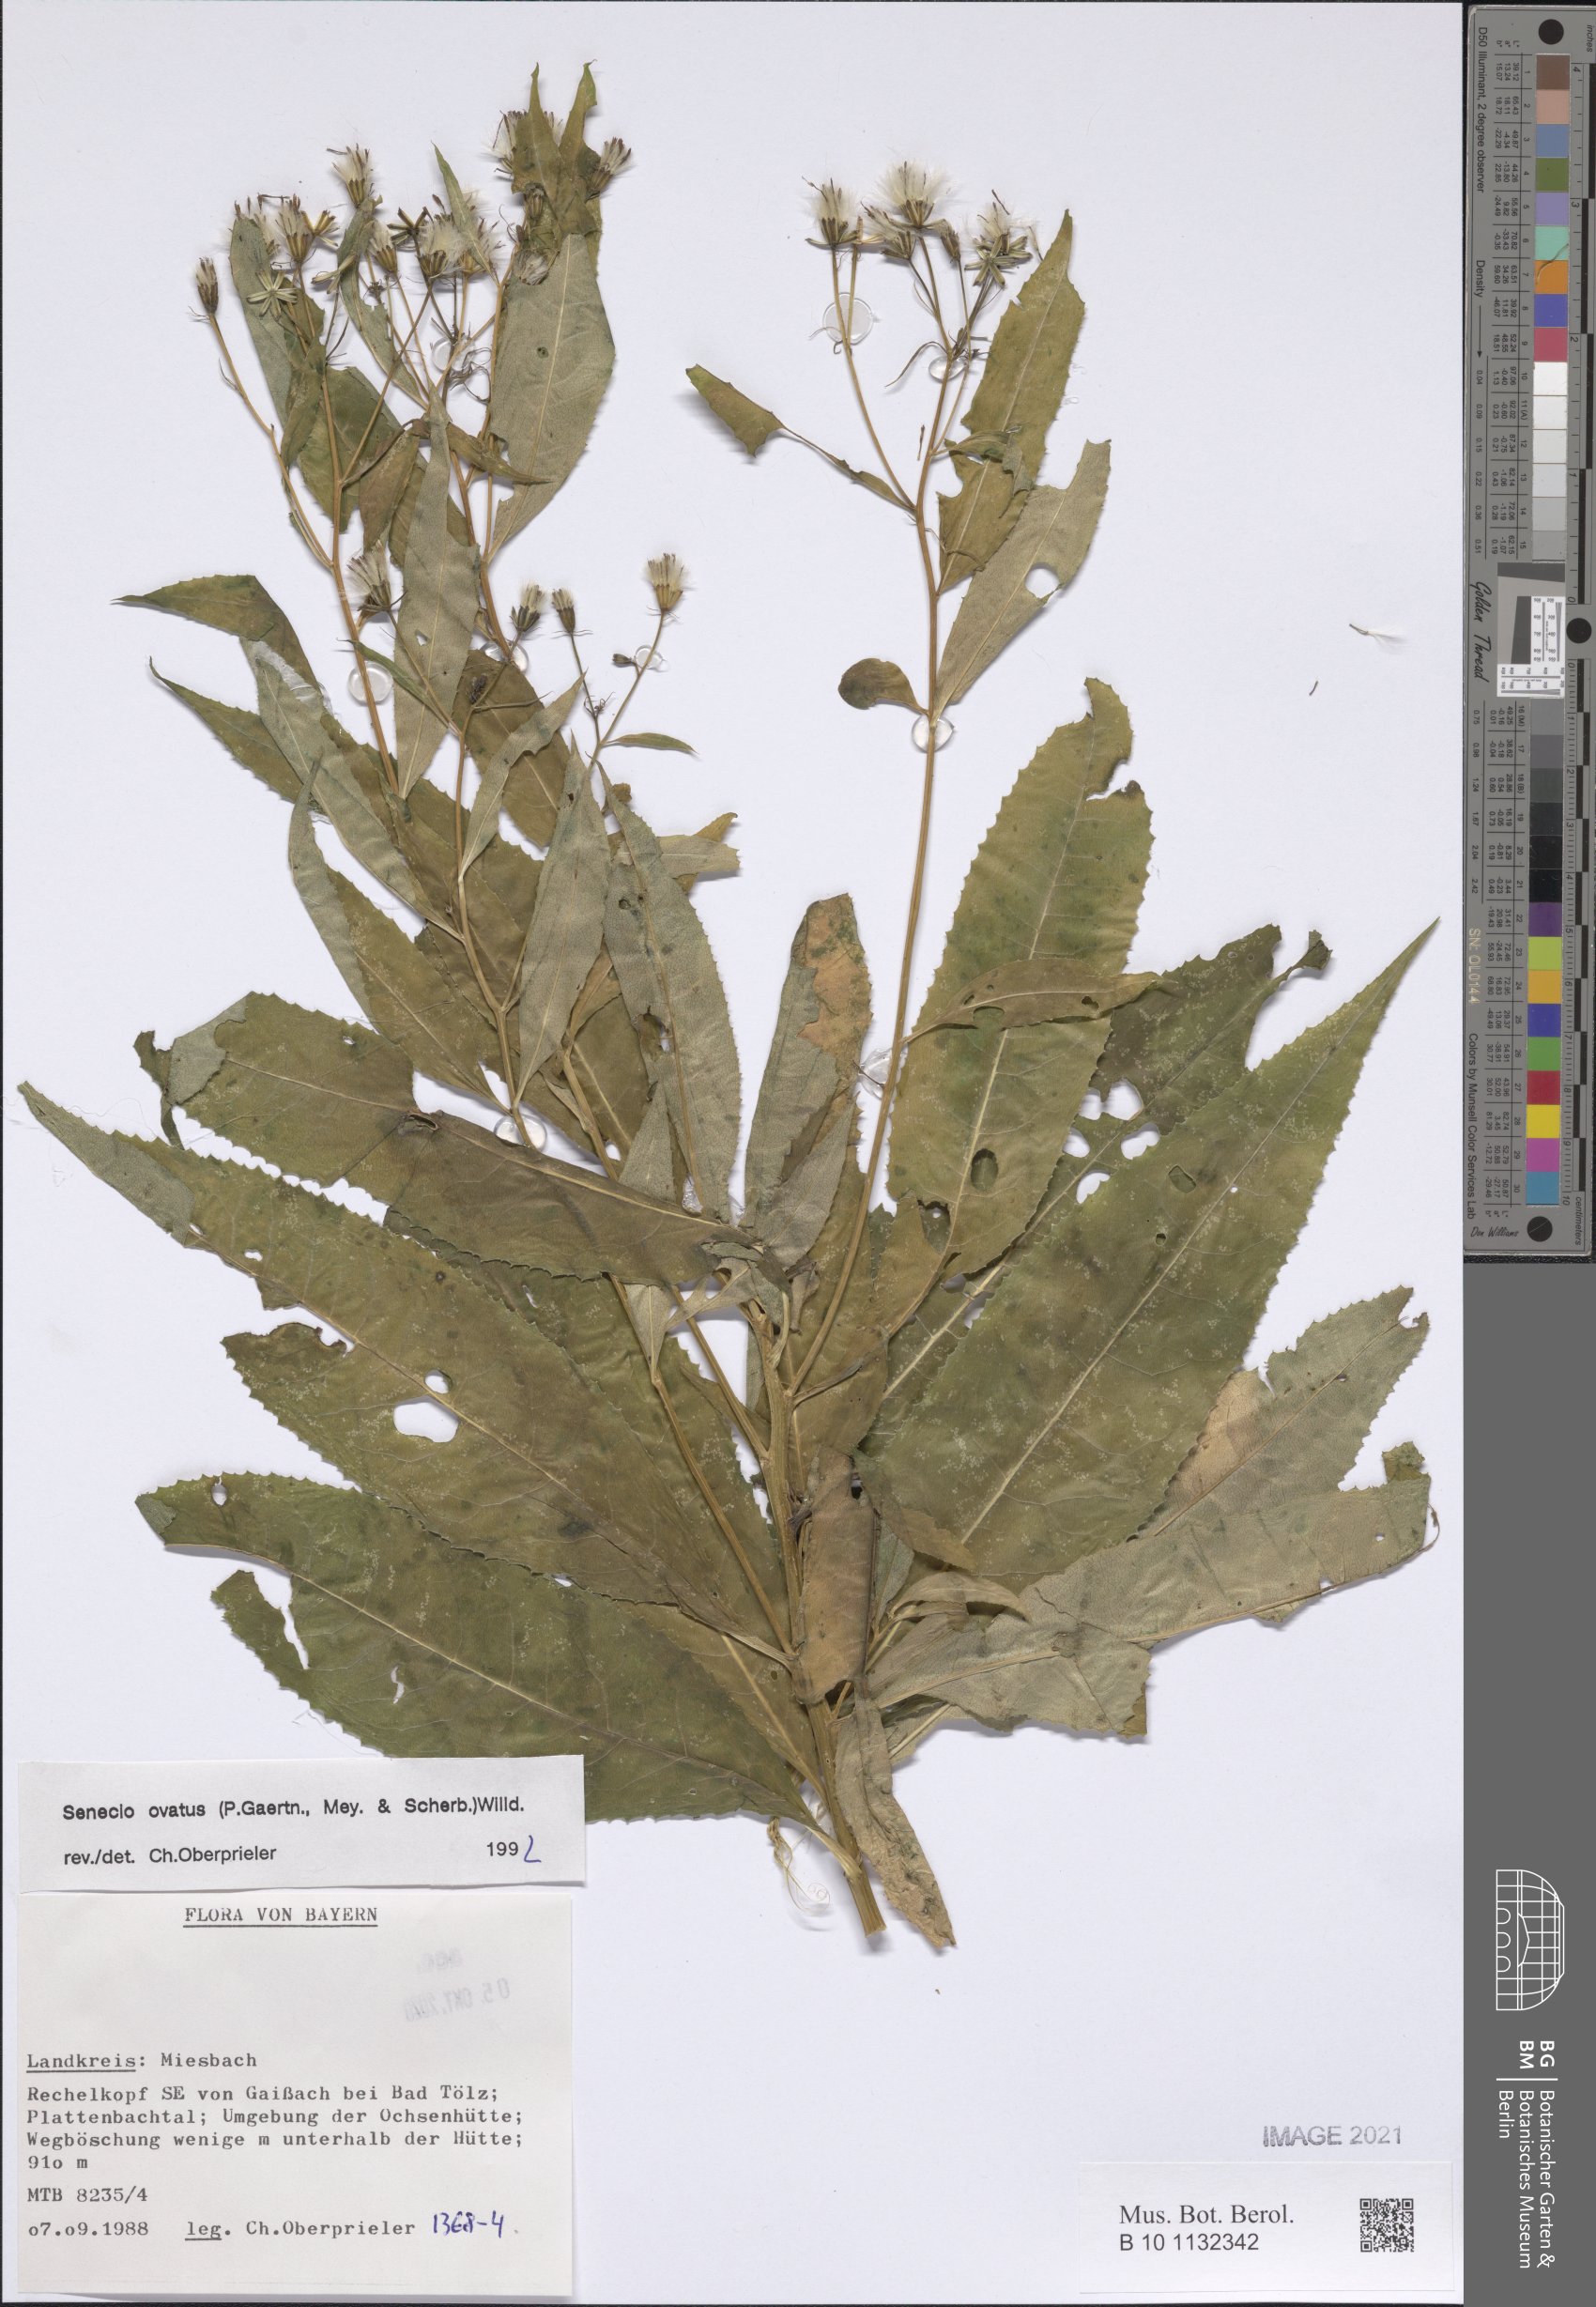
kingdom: Plantae
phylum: Tracheophyta
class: Magnoliopsida
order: Asterales
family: Asteraceae
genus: Senecio
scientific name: Senecio ovatus
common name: Wood ragwort
